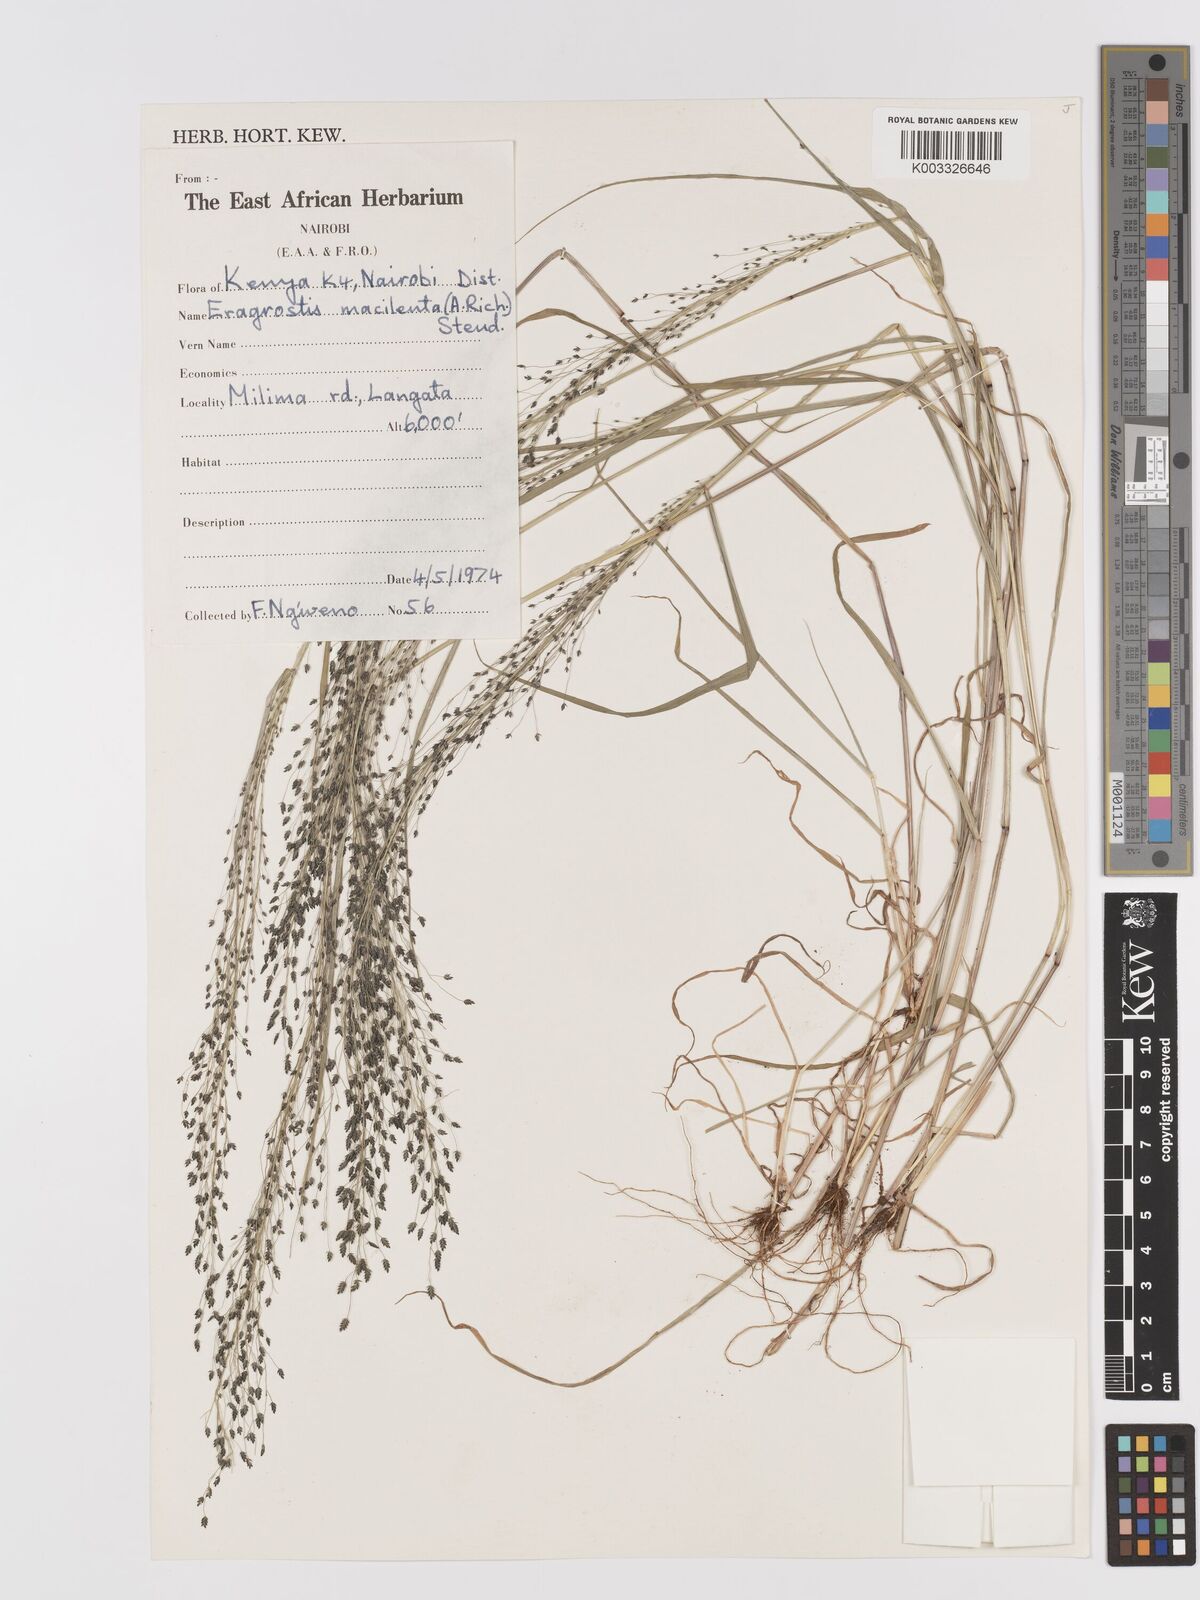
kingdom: Plantae
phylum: Tracheophyta
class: Liliopsida
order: Poales
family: Poaceae
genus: Eragrostis
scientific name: Eragrostis macilenta
